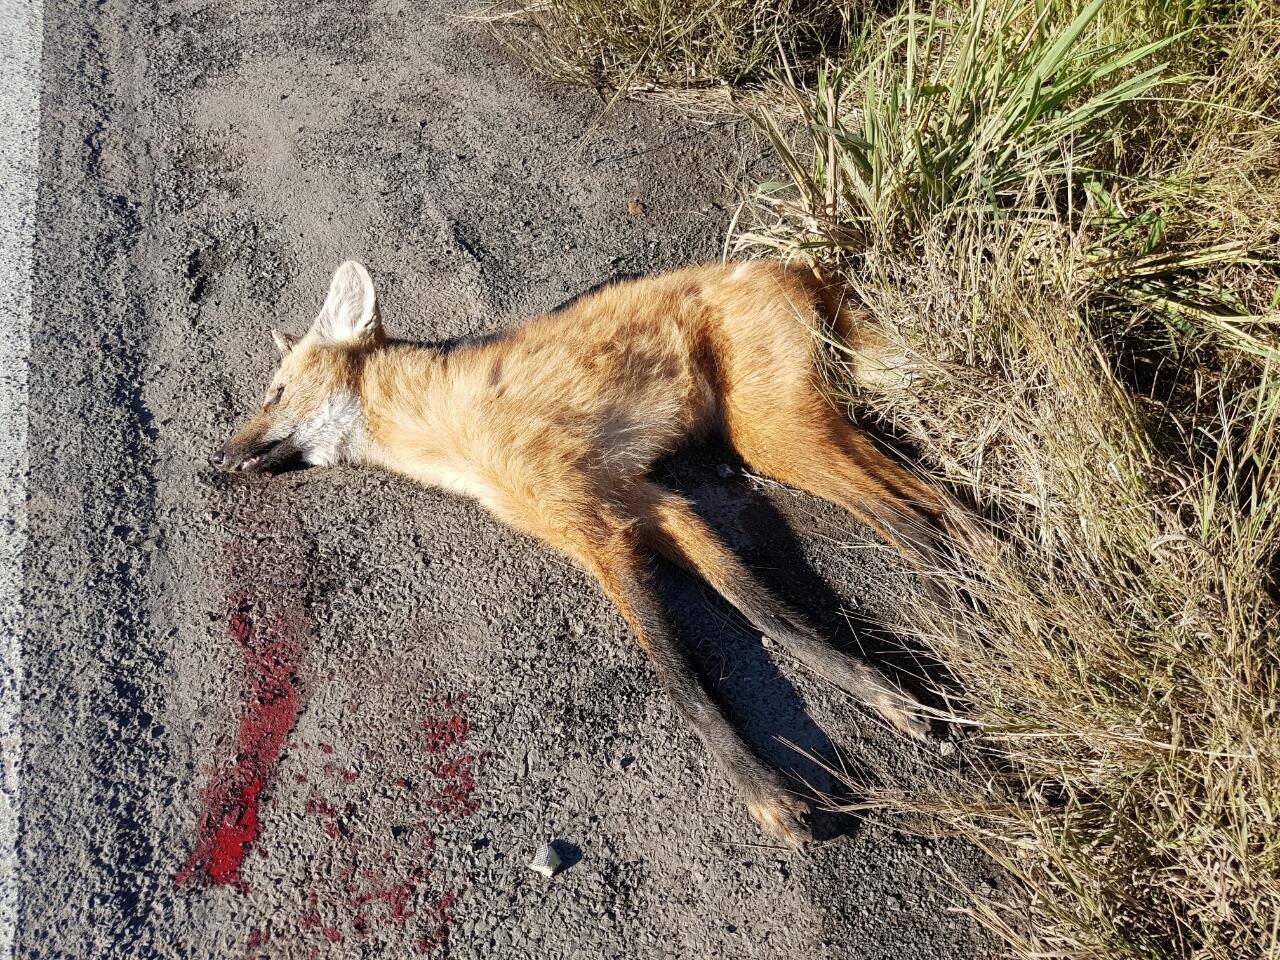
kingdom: Animalia
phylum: Chordata
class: Mammalia
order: Carnivora
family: Canidae
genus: Chrysocyon
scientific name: Chrysocyon brachyurus
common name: Maned wolf
